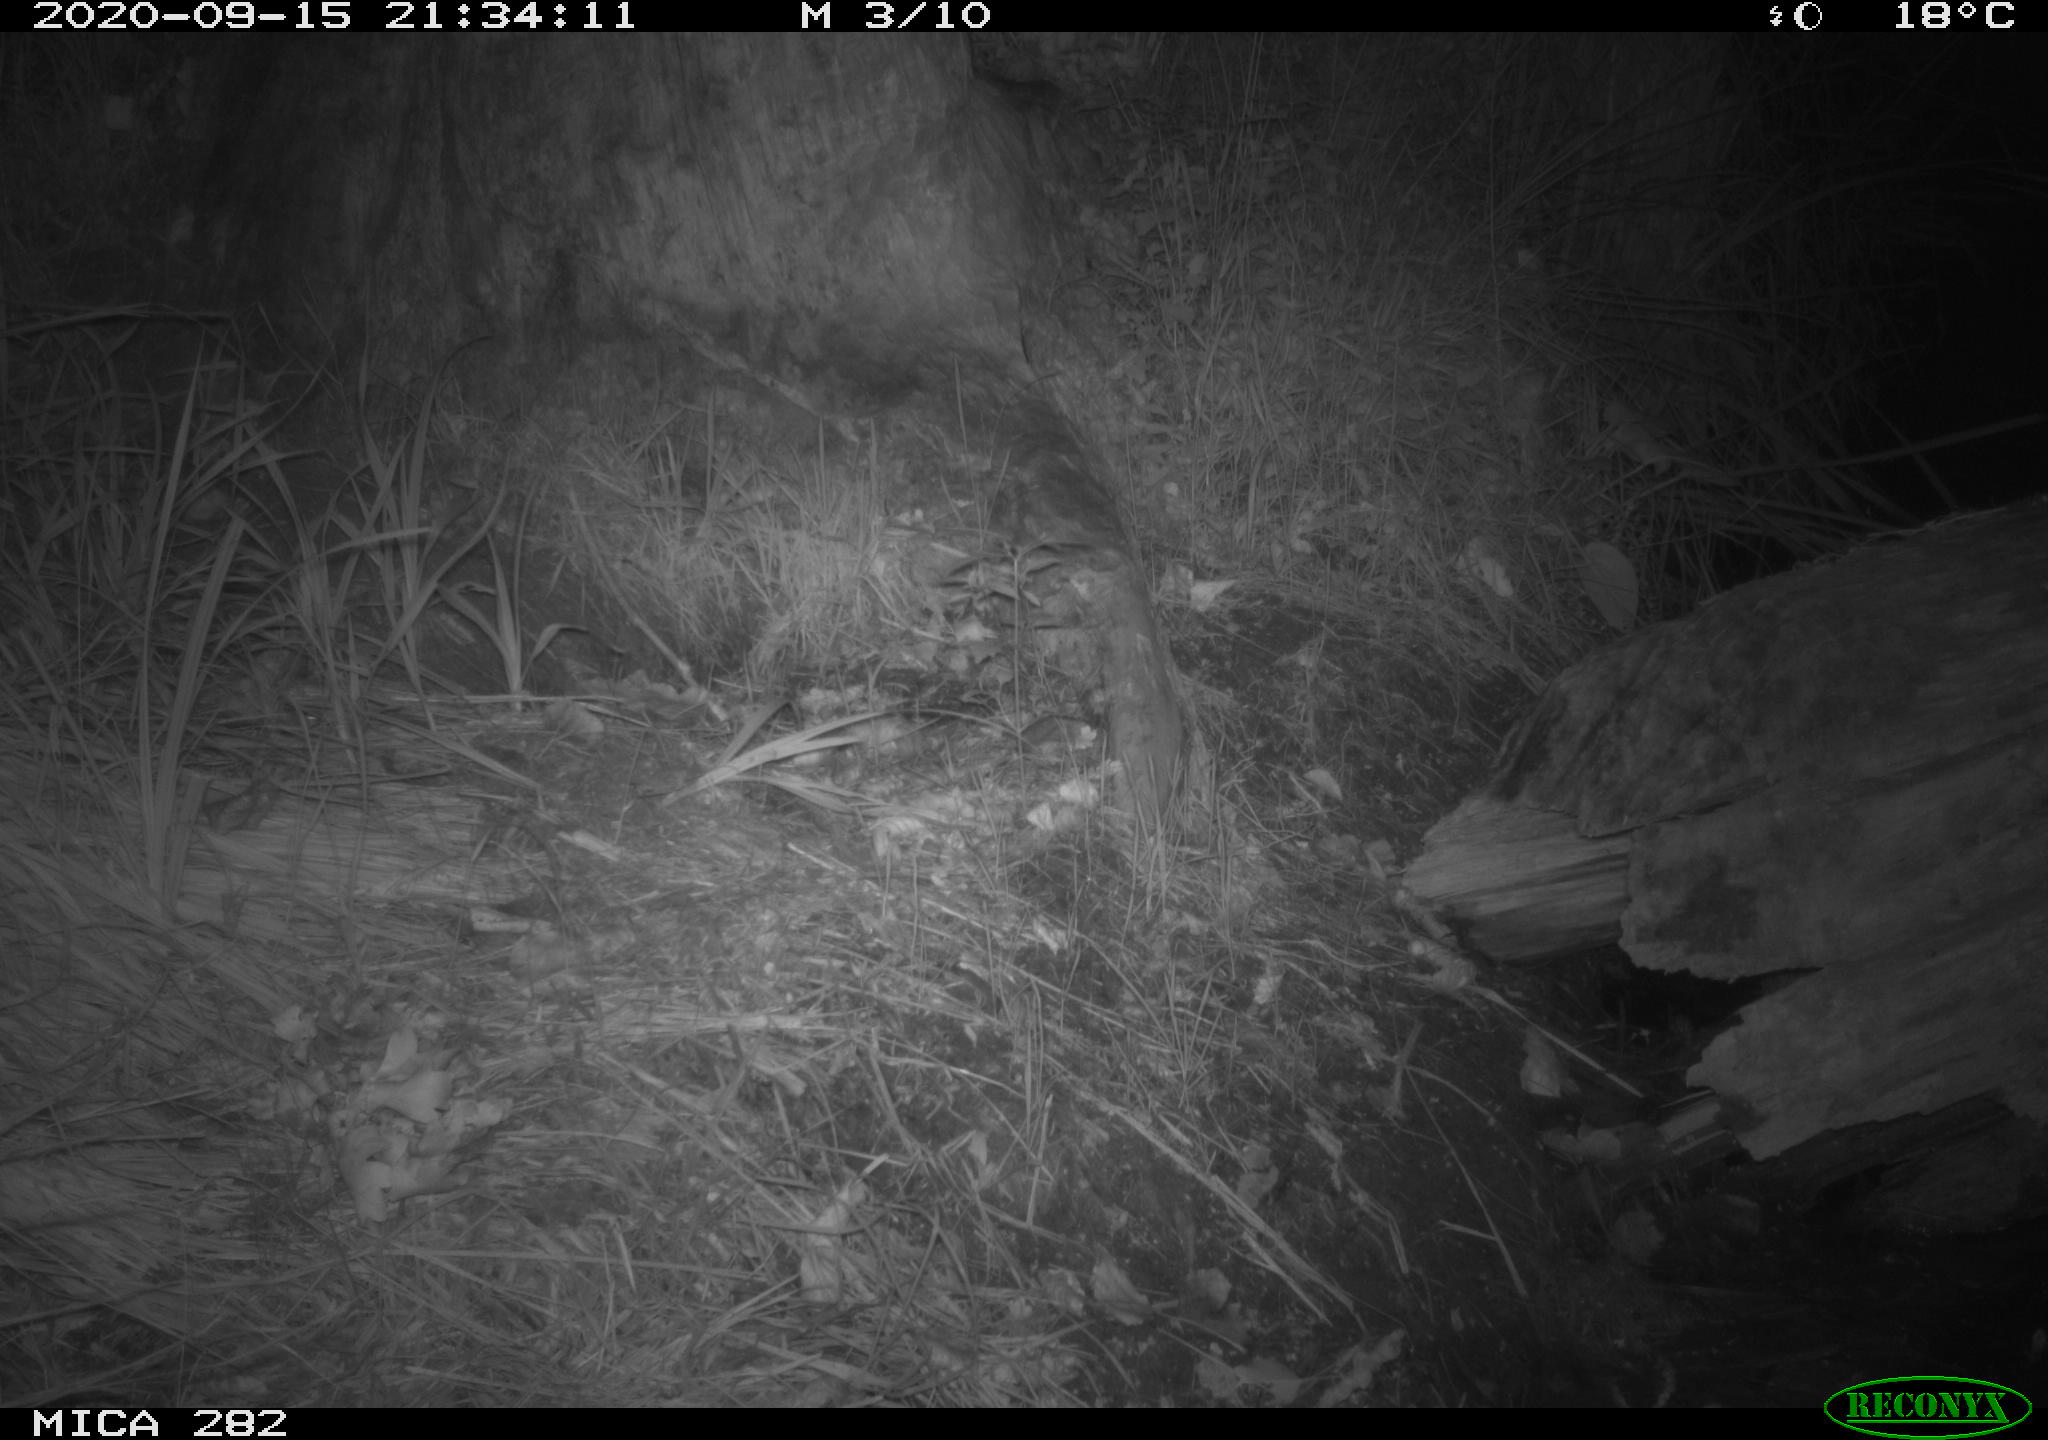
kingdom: Animalia
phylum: Chordata
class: Mammalia
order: Carnivora
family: Mustelidae
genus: Martes
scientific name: Martes foina
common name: Beech marten
